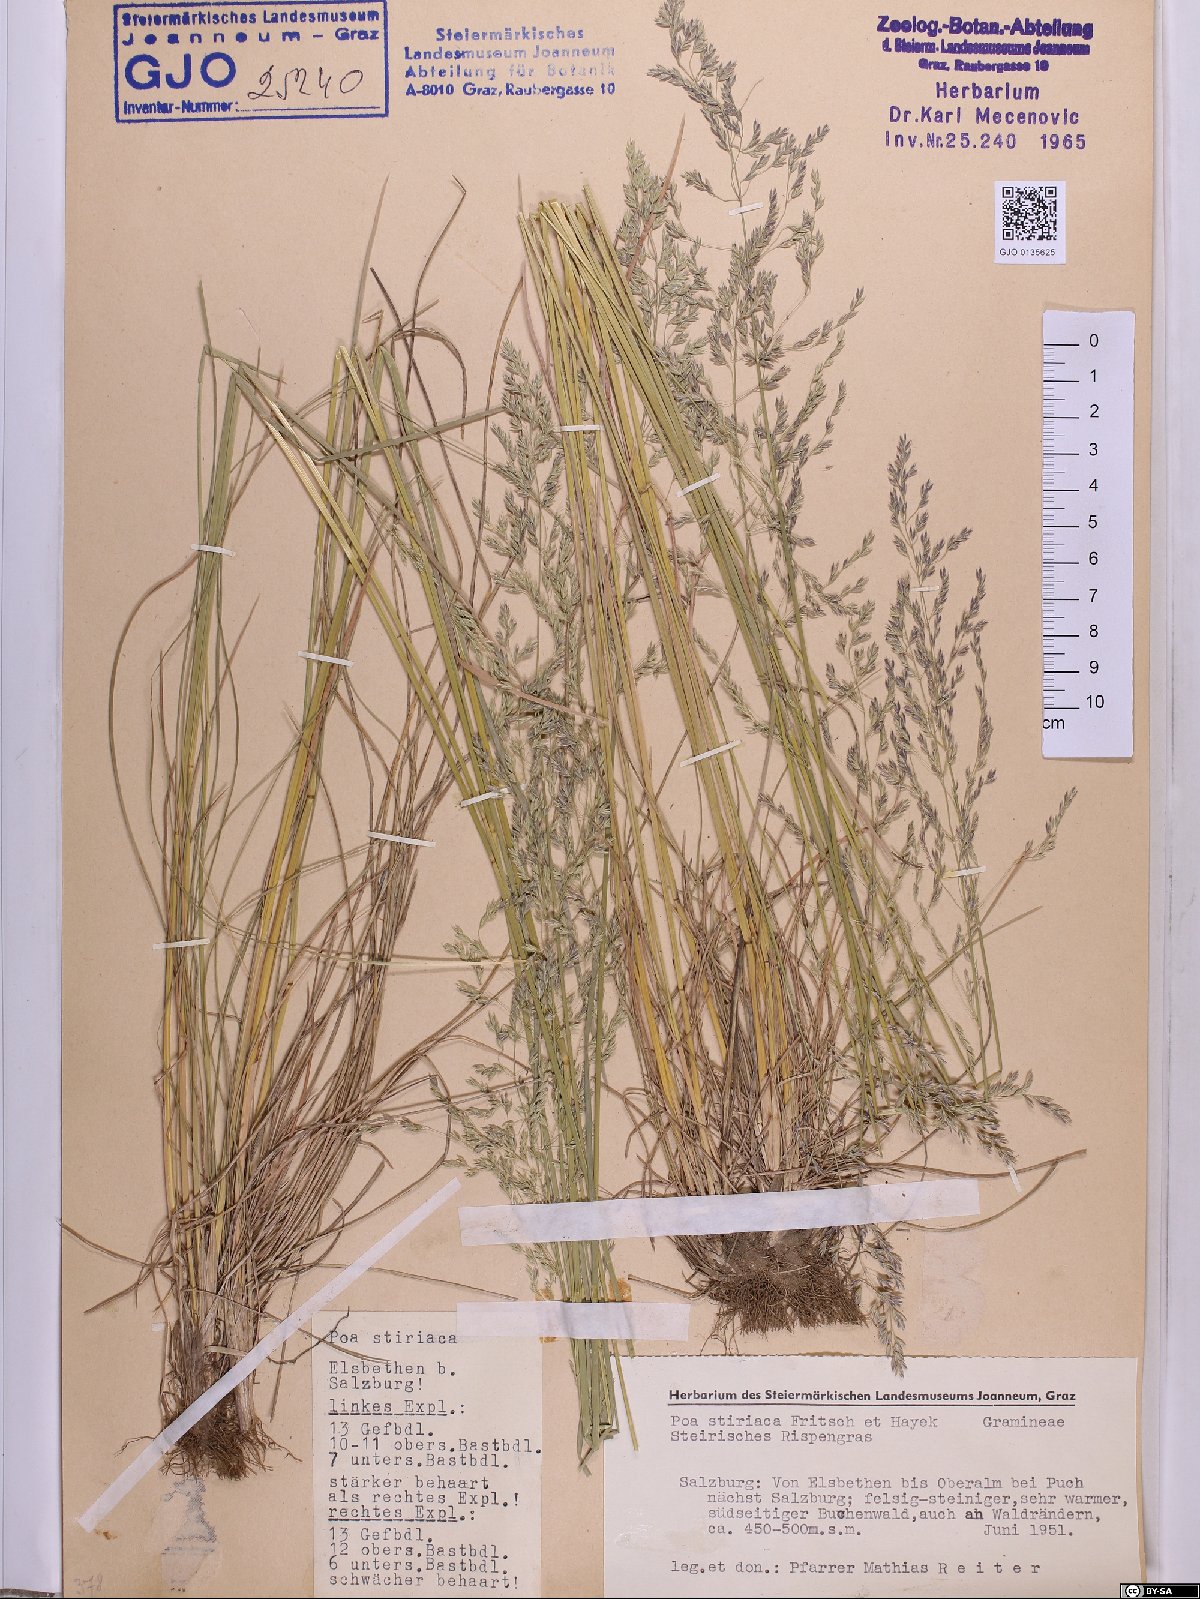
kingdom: Plantae
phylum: Tracheophyta
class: Liliopsida
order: Poales
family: Poaceae
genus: Poa
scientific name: Poa stiriaca
